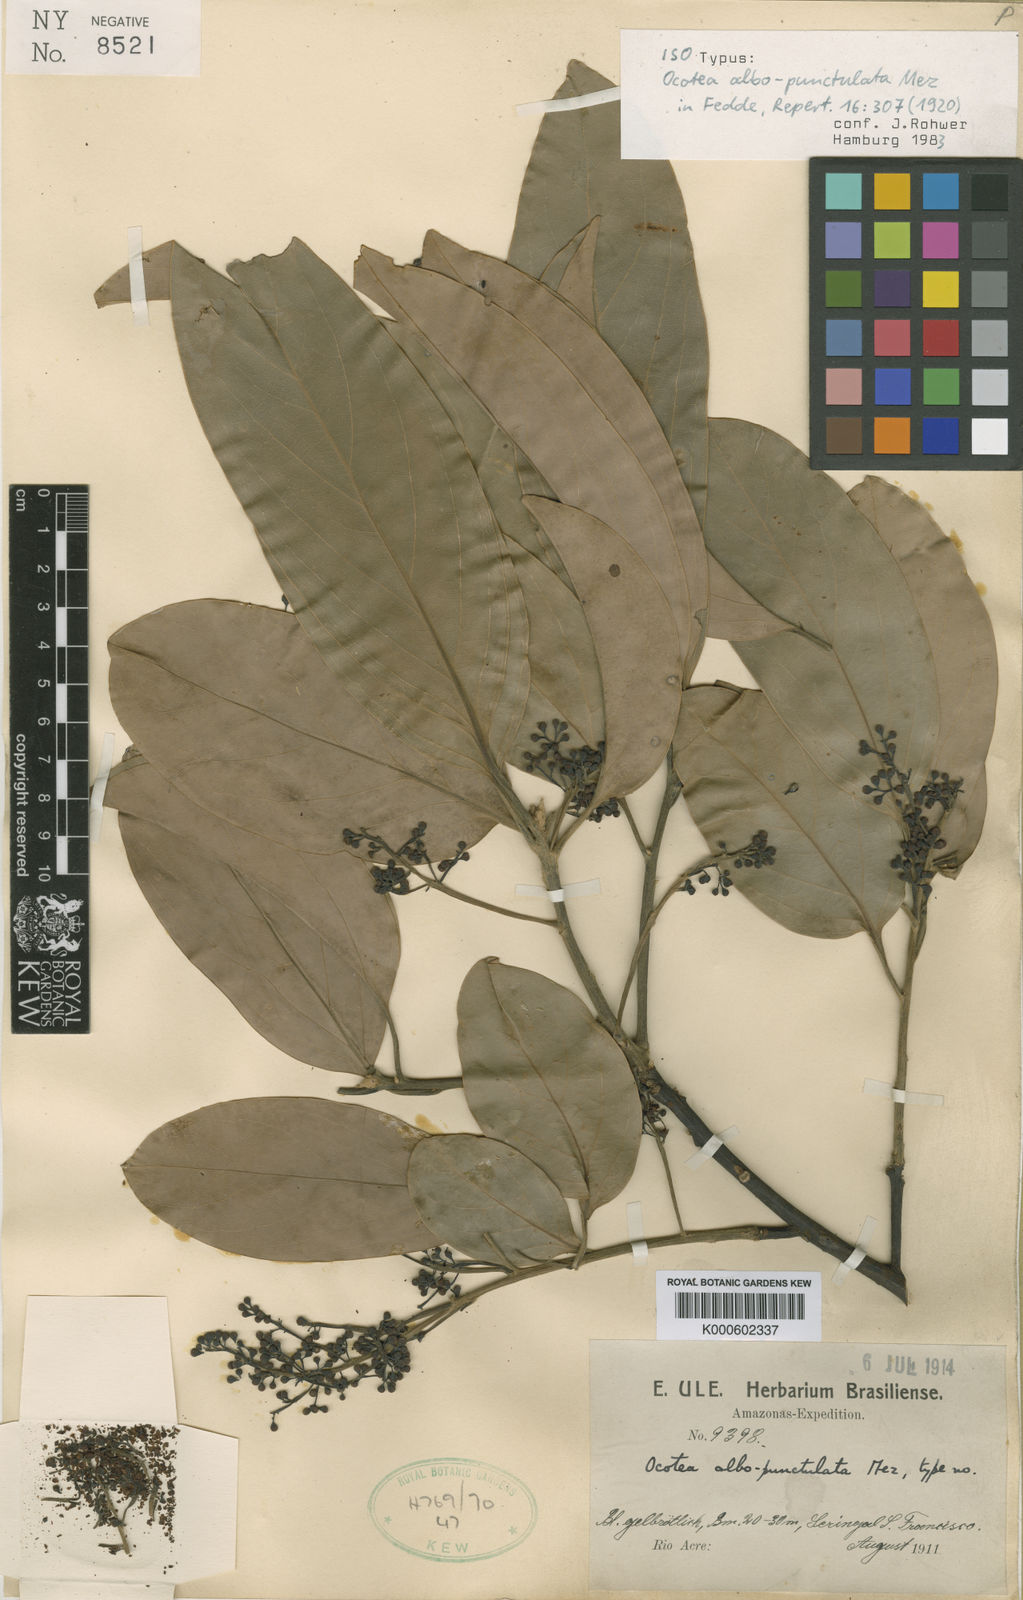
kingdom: Plantae
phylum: Tracheophyta
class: Magnoliopsida
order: Laurales
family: Lauraceae
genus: Ocotea
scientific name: Ocotea albopunctulata
